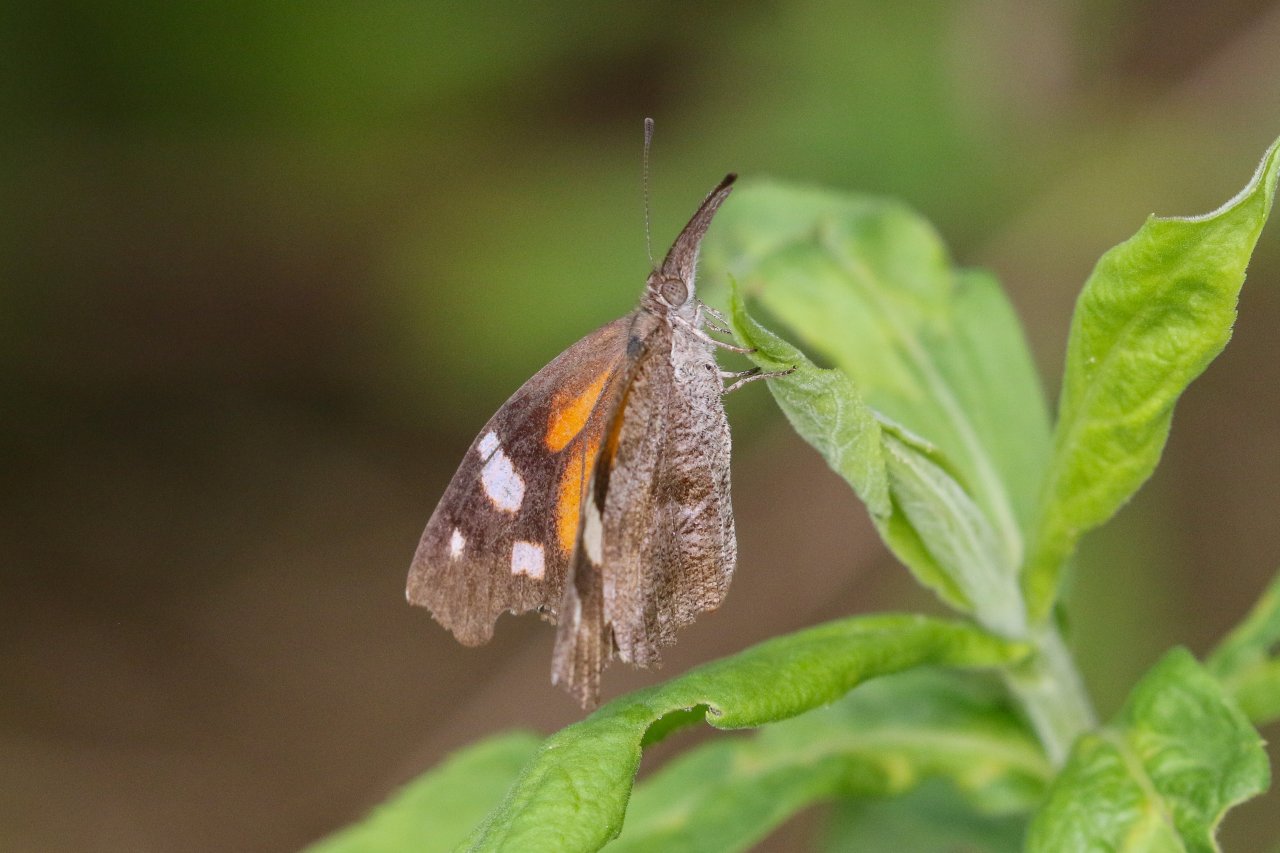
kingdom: Animalia
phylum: Arthropoda
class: Insecta
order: Lepidoptera
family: Nymphalidae
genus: Libytheana
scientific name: Libytheana carinenta
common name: American Snout
